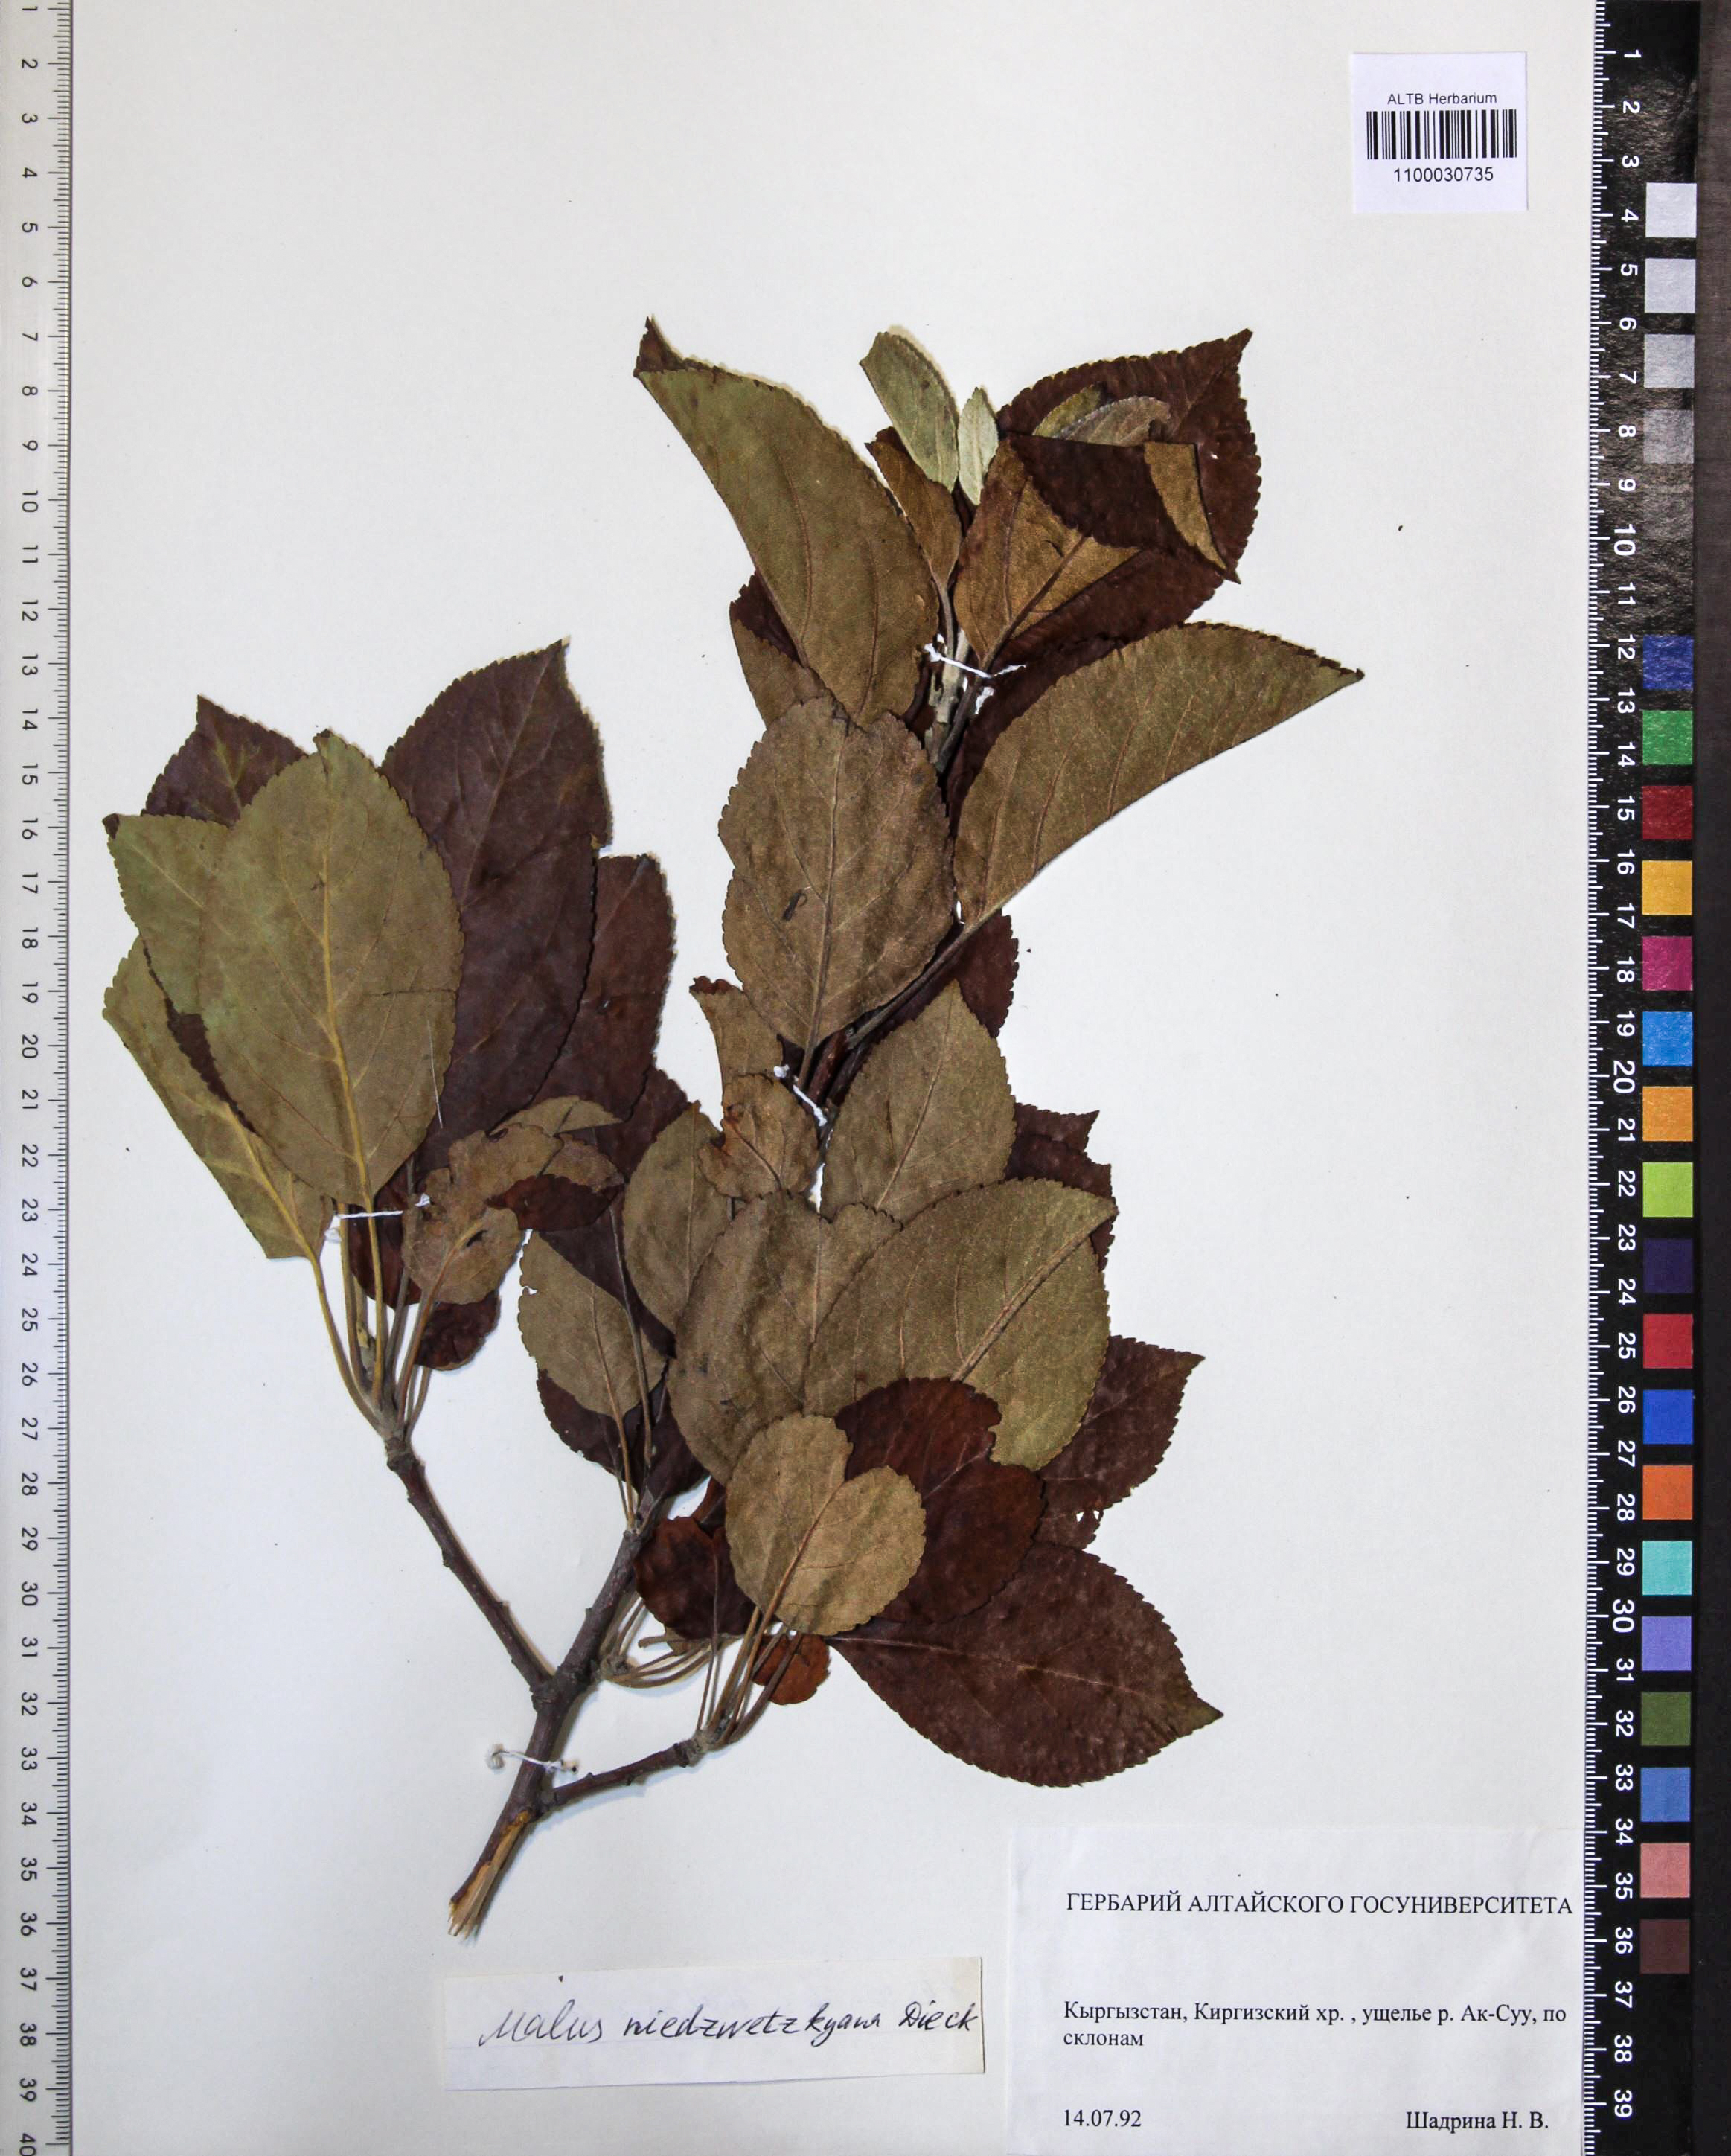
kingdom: Plantae
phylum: Tracheophyta
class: Magnoliopsida
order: Rosales
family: Rosaceae
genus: Malus
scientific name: Malus domestica
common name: Apple
